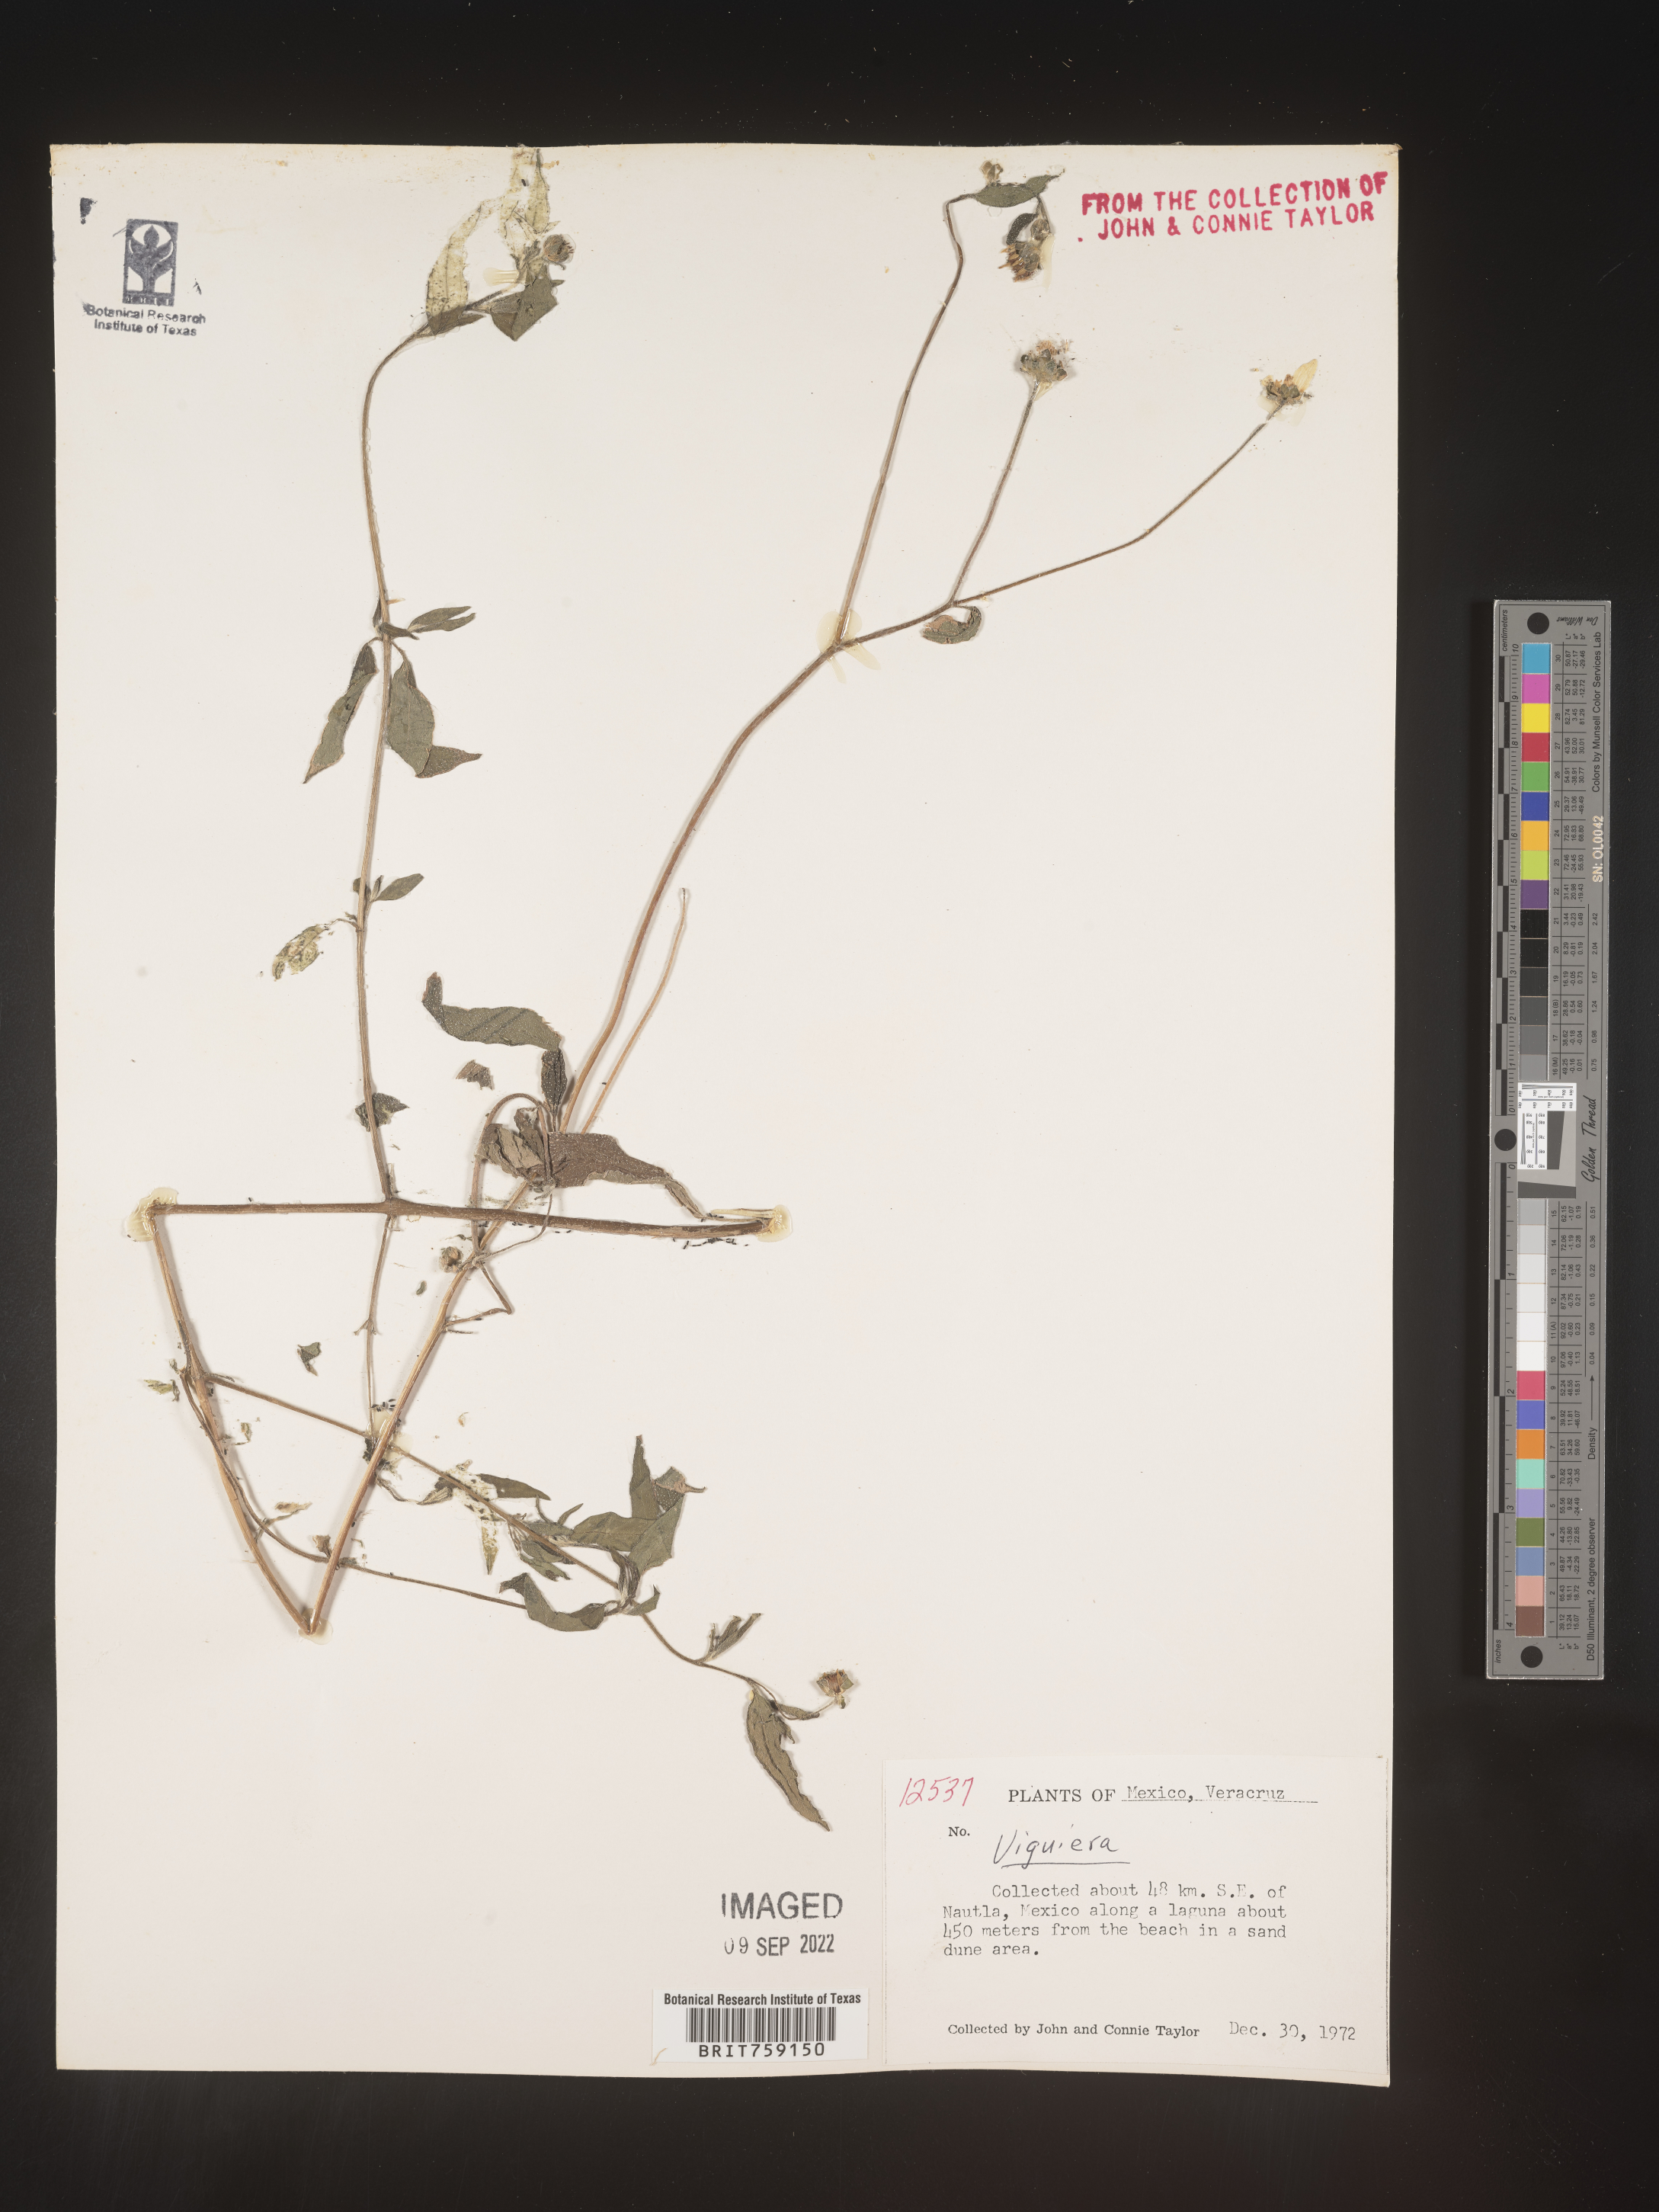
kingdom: Plantae
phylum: Tracheophyta
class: Magnoliopsida
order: Asterales
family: Asteraceae
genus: Viguiera
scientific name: Viguiera
